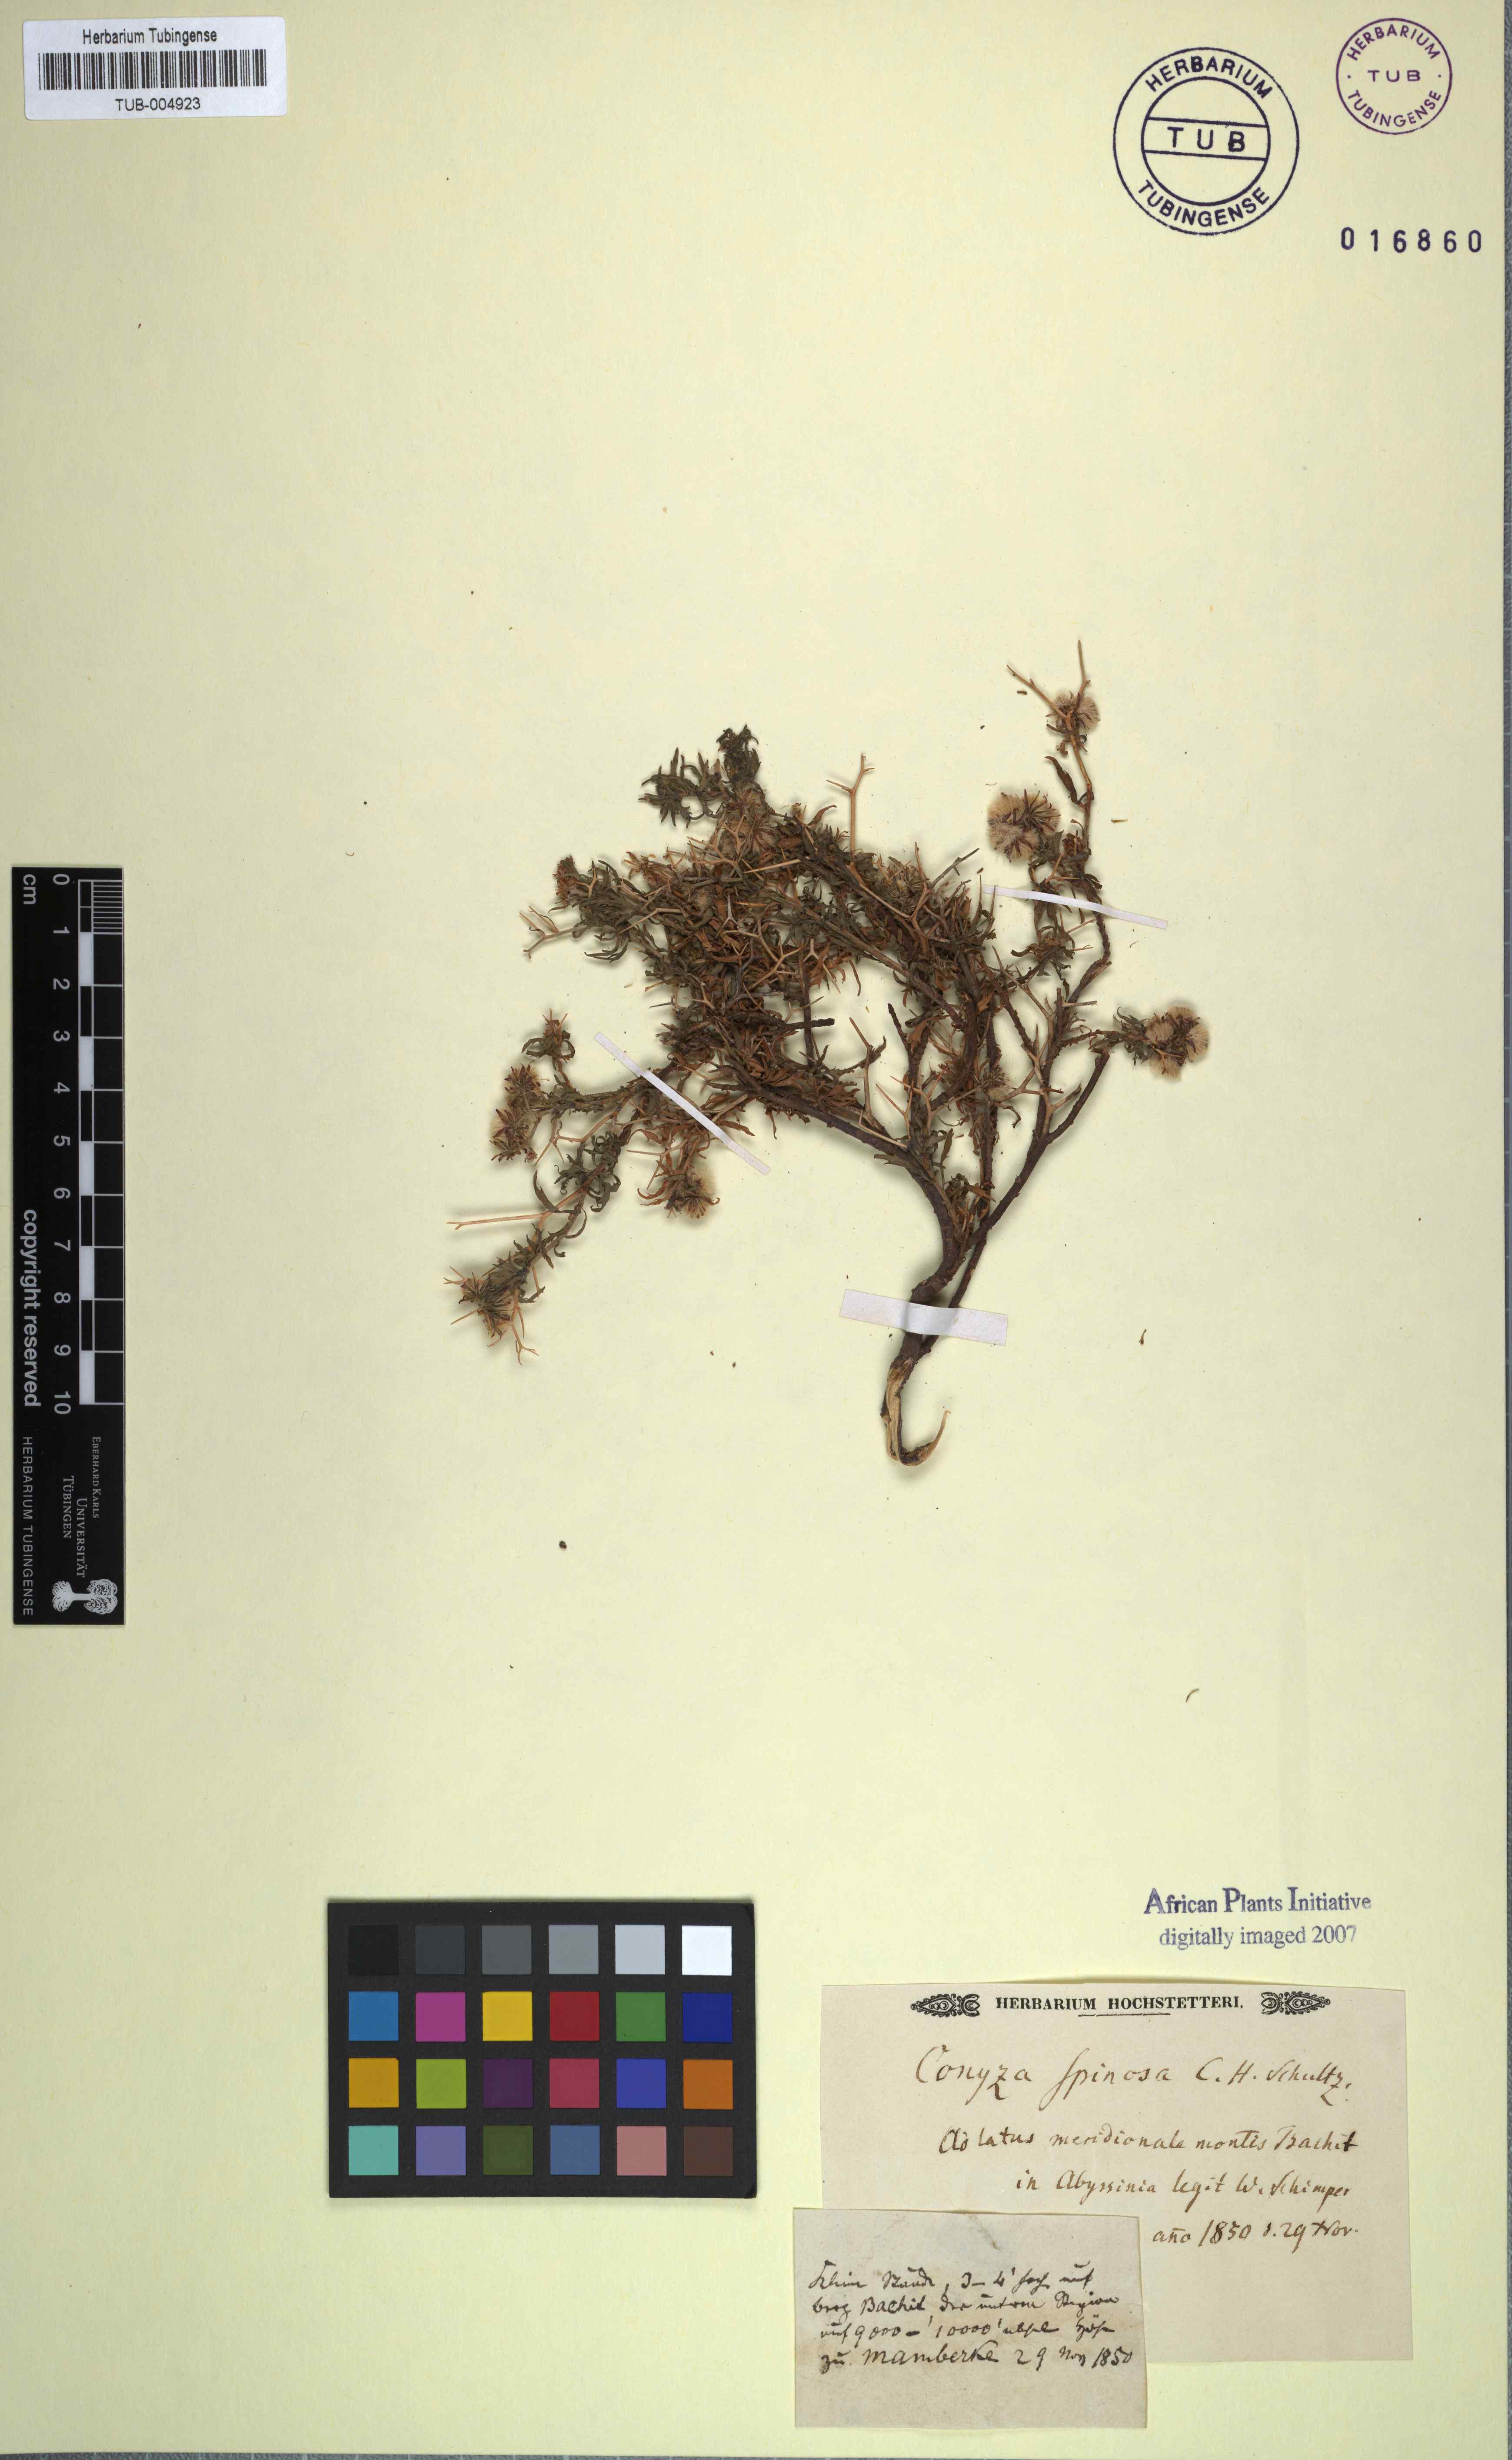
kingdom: Plantae
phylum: Tracheophyta
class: Magnoliopsida
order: Asterales
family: Asteraceae
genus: Conyza
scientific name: Conyza spinosa
